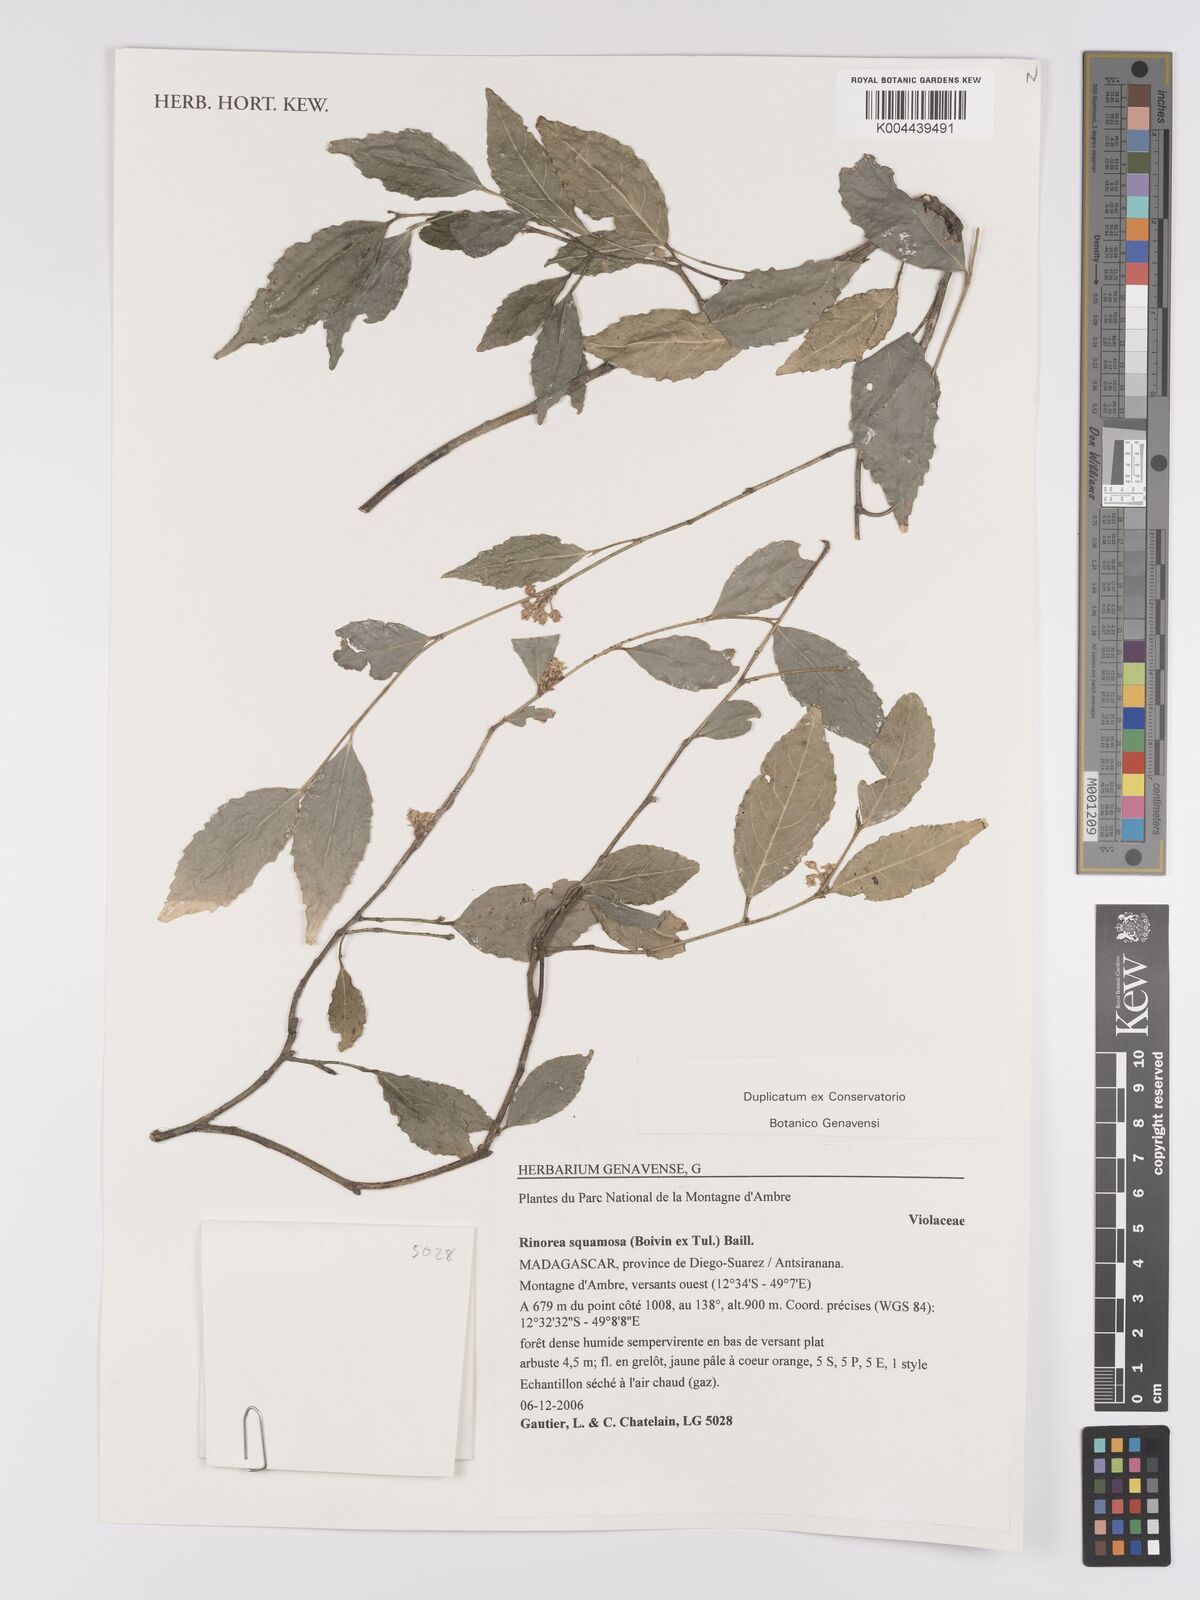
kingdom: Plantae
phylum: Tracheophyta
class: Magnoliopsida
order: Malpighiales
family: Violaceae
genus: Rinorea
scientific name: Rinorea squamosa
